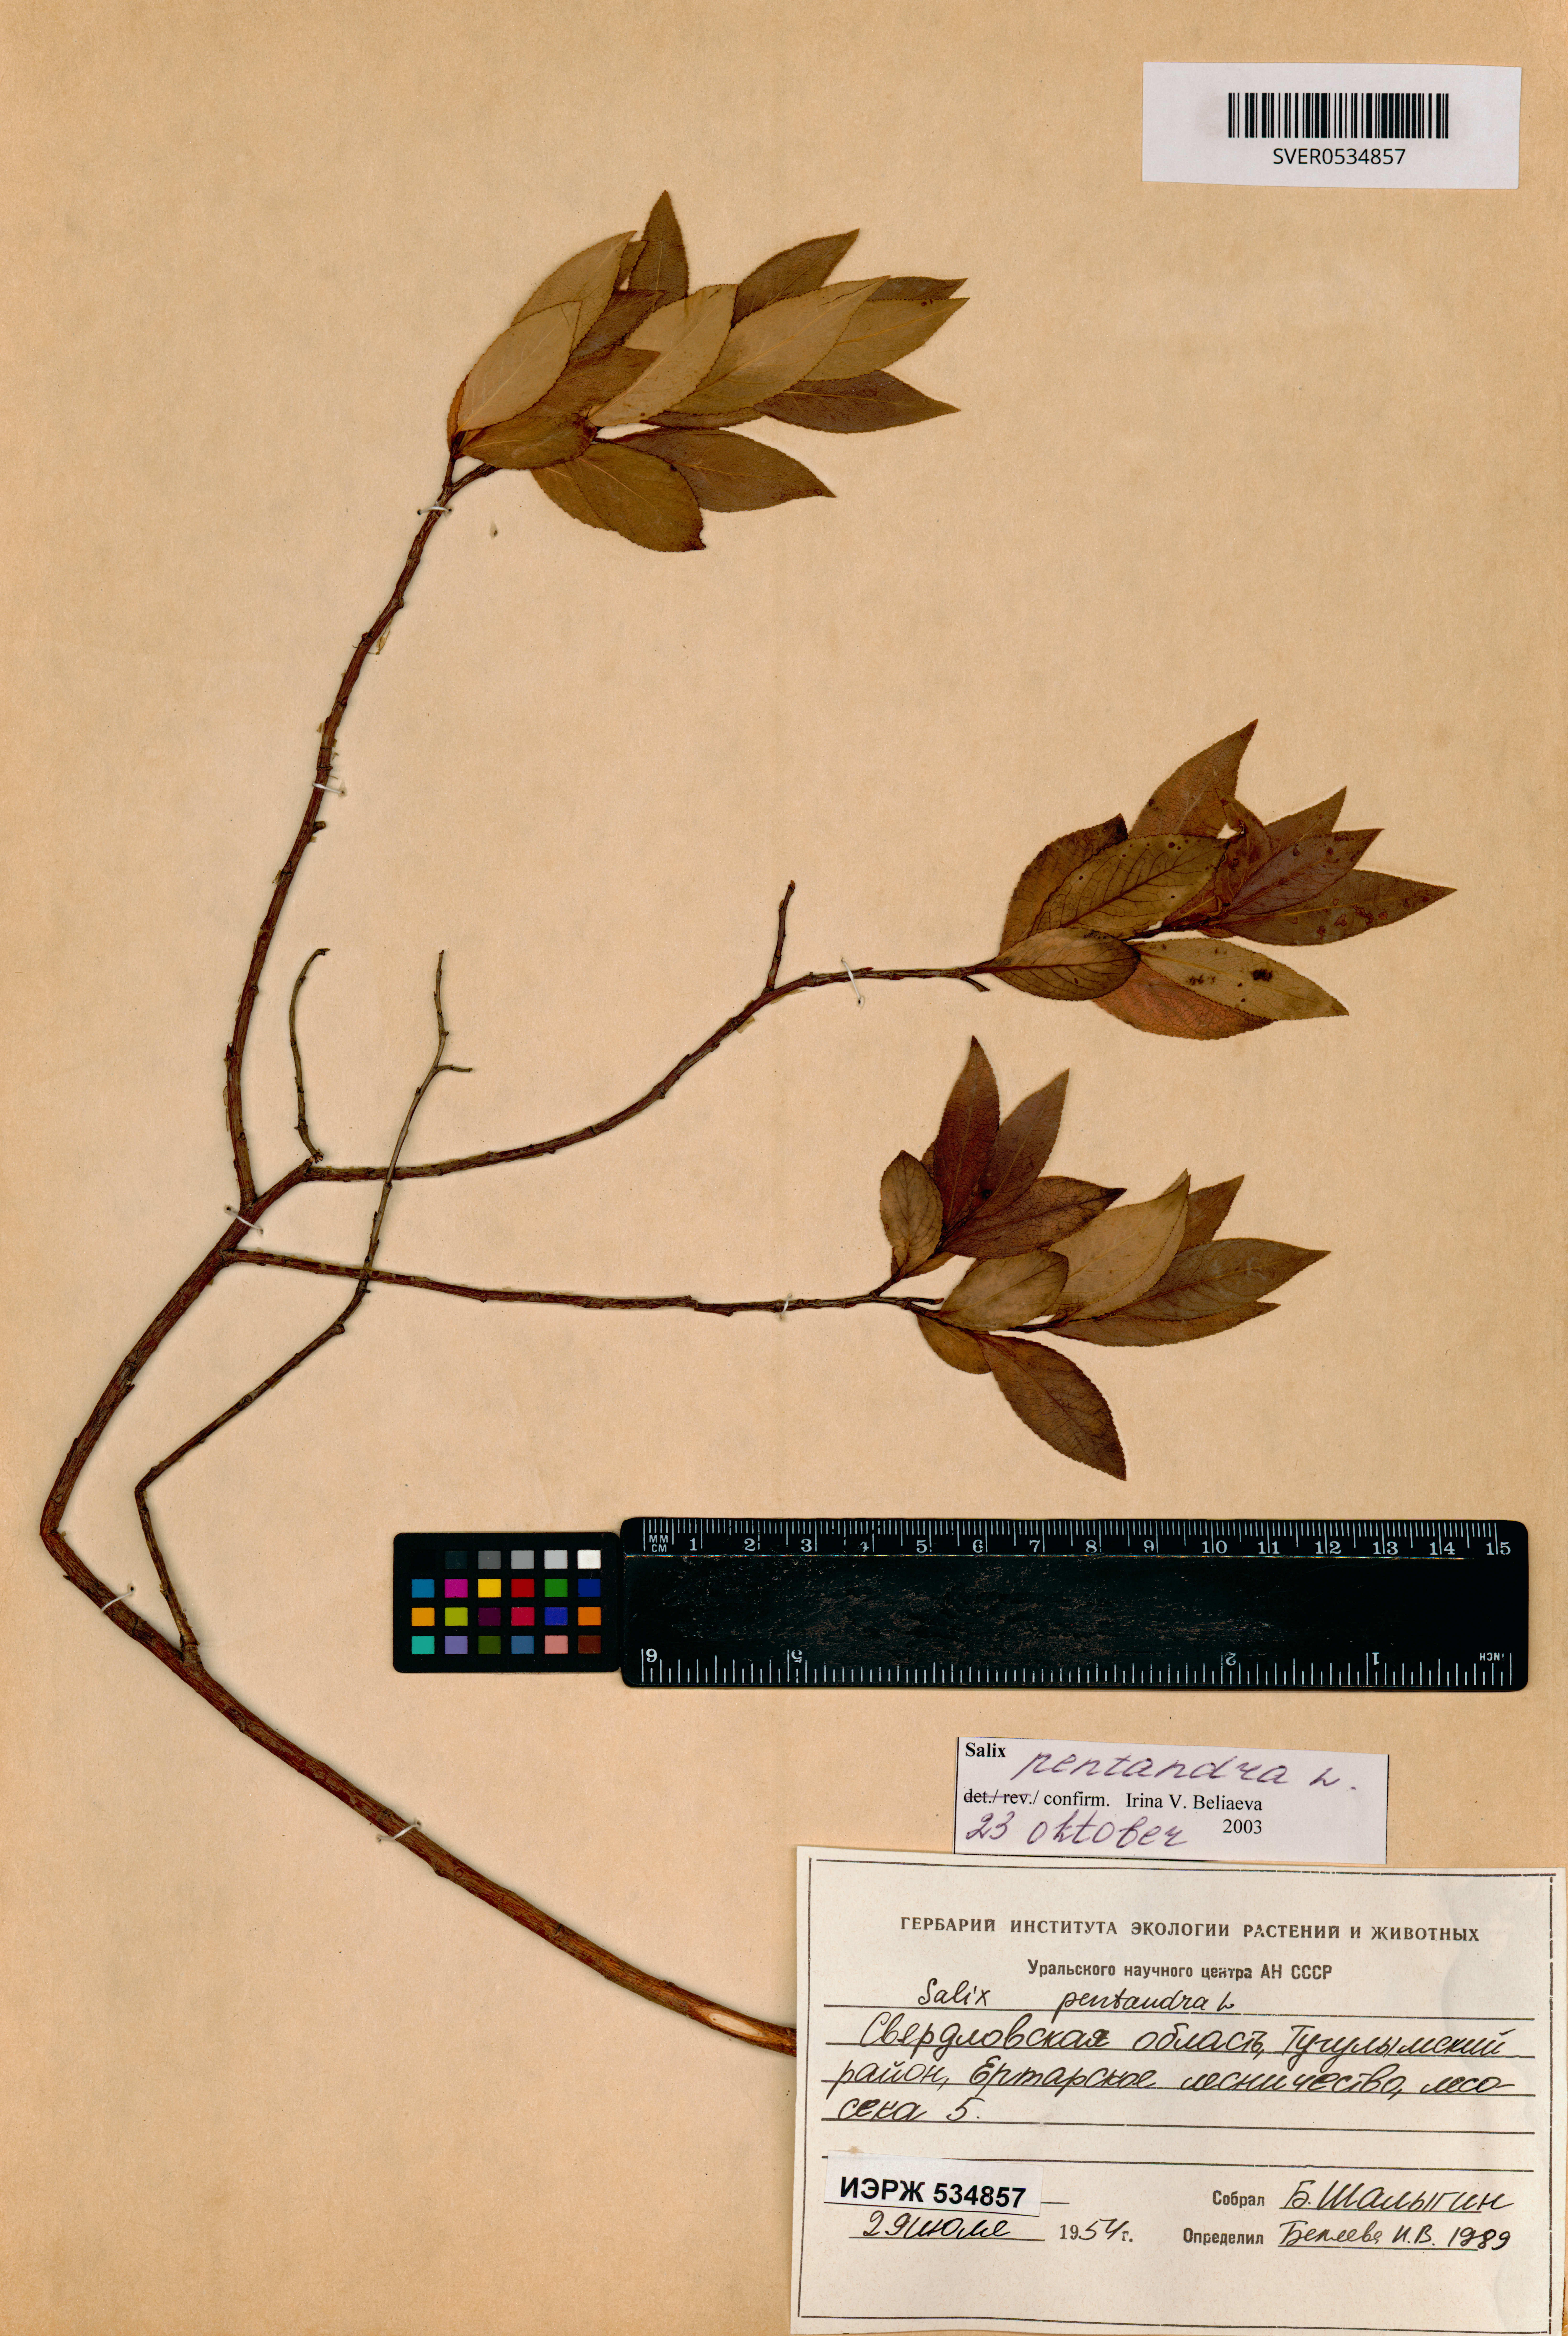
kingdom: Plantae
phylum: Tracheophyta
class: Magnoliopsida
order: Malpighiales
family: Salicaceae
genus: Salix
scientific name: Salix pentandra
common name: Bay willow
